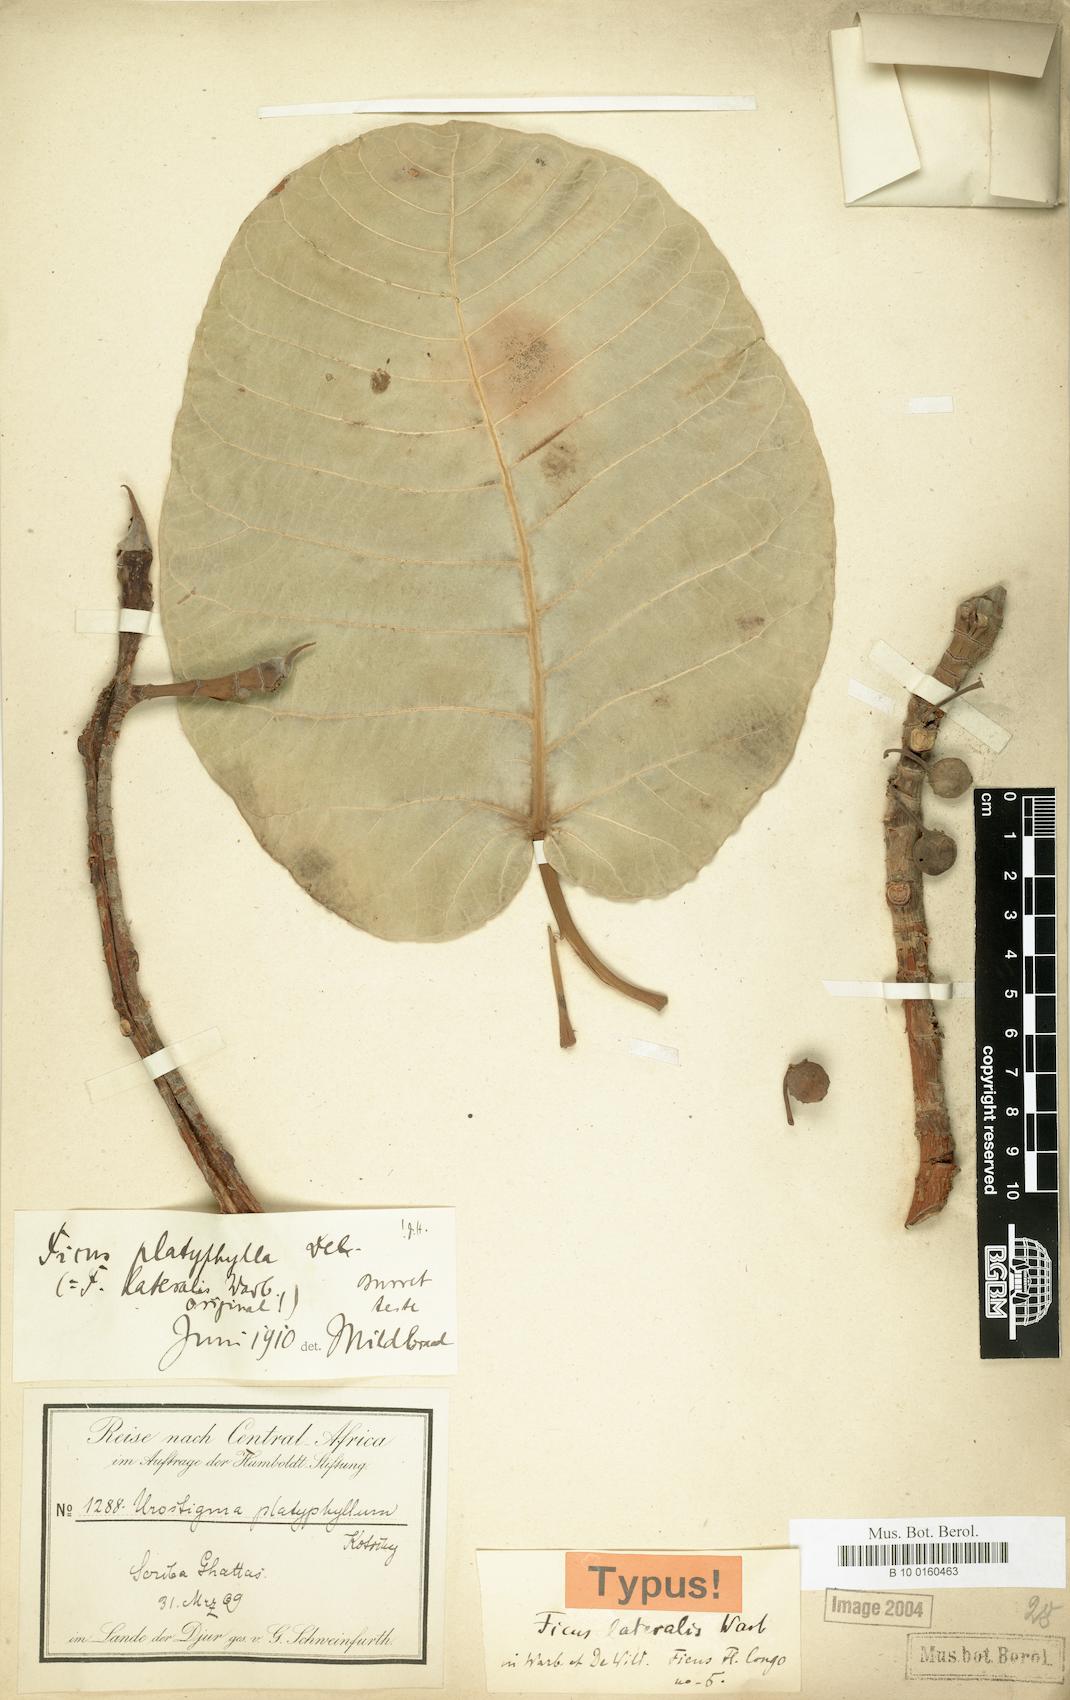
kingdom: Plantae
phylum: Tracheophyta
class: Magnoliopsida
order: Rosales
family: Moraceae
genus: Ficus
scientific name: Ficus platyphylla
